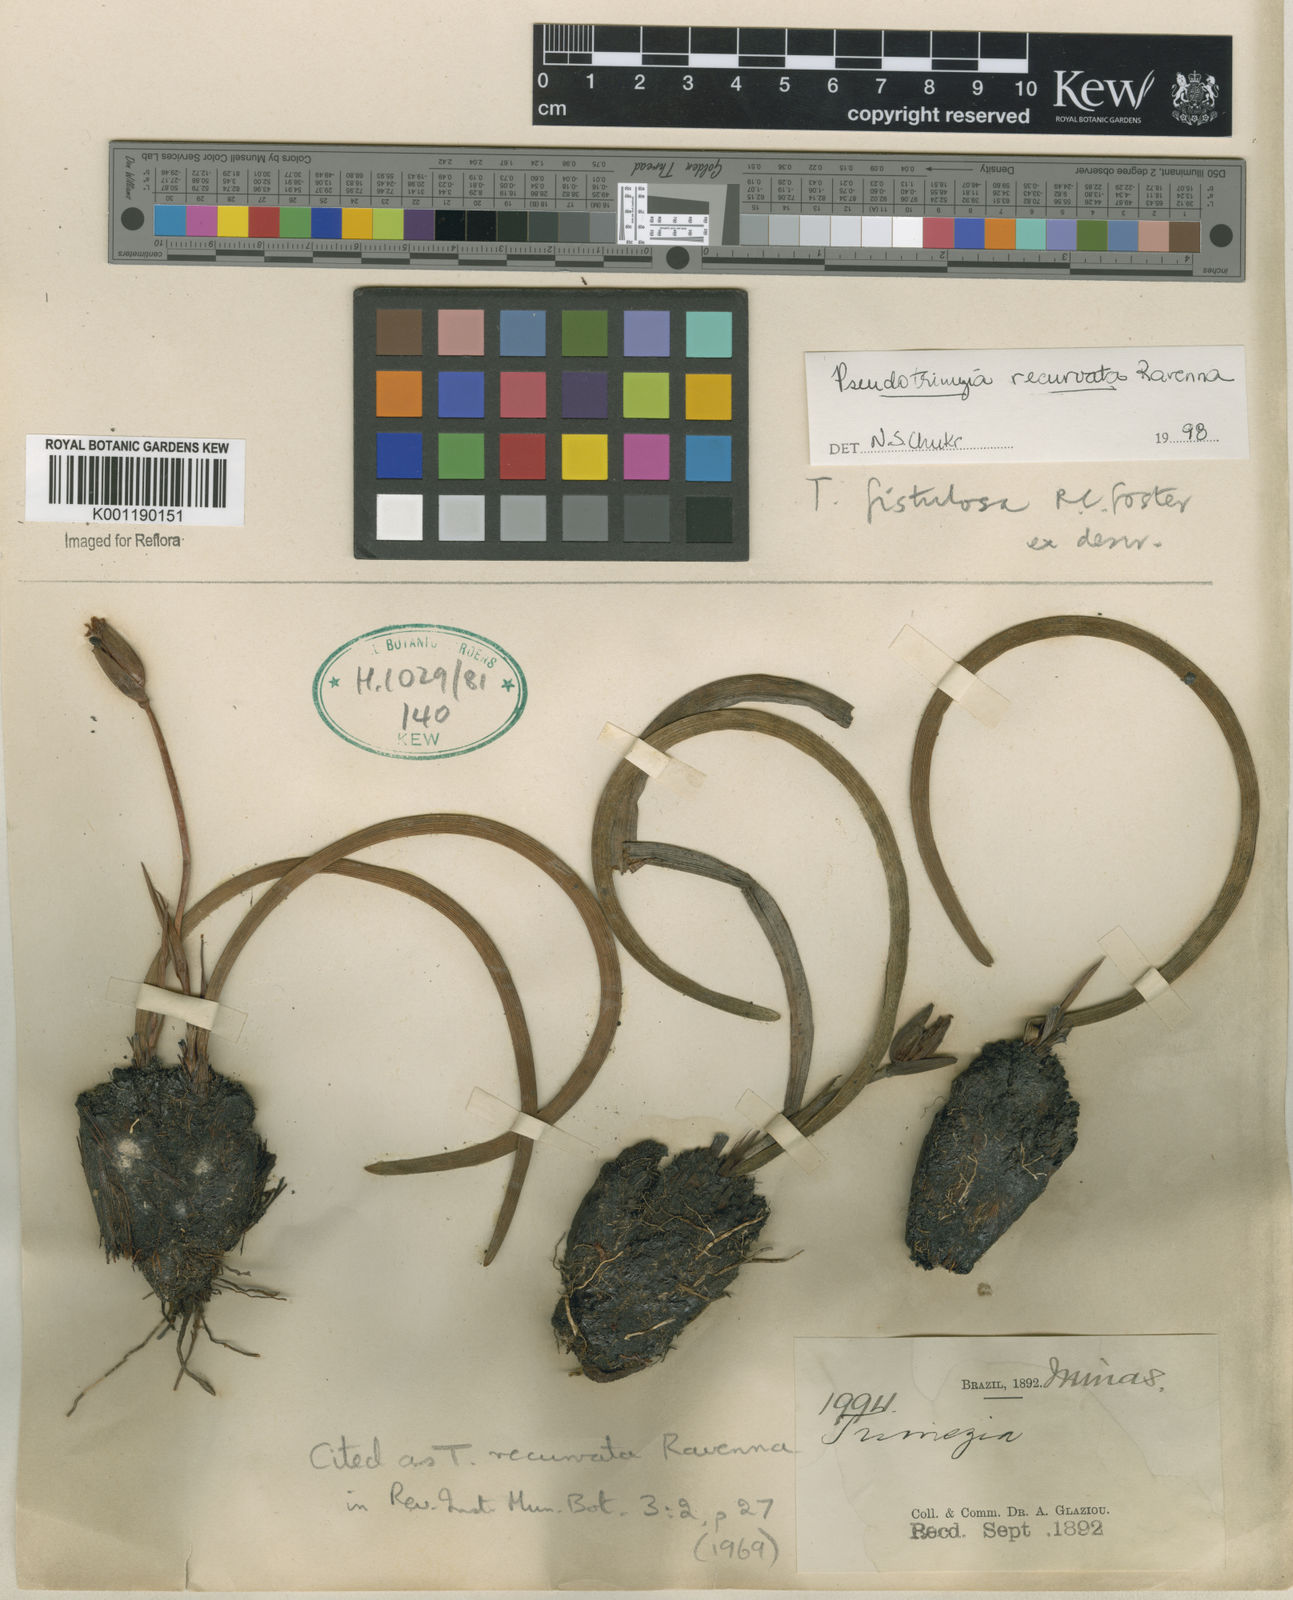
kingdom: Plantae
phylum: Tracheophyta
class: Liliopsida
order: Asparagales
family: Iridaceae
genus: Trimezia
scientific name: Trimezia recurvata
